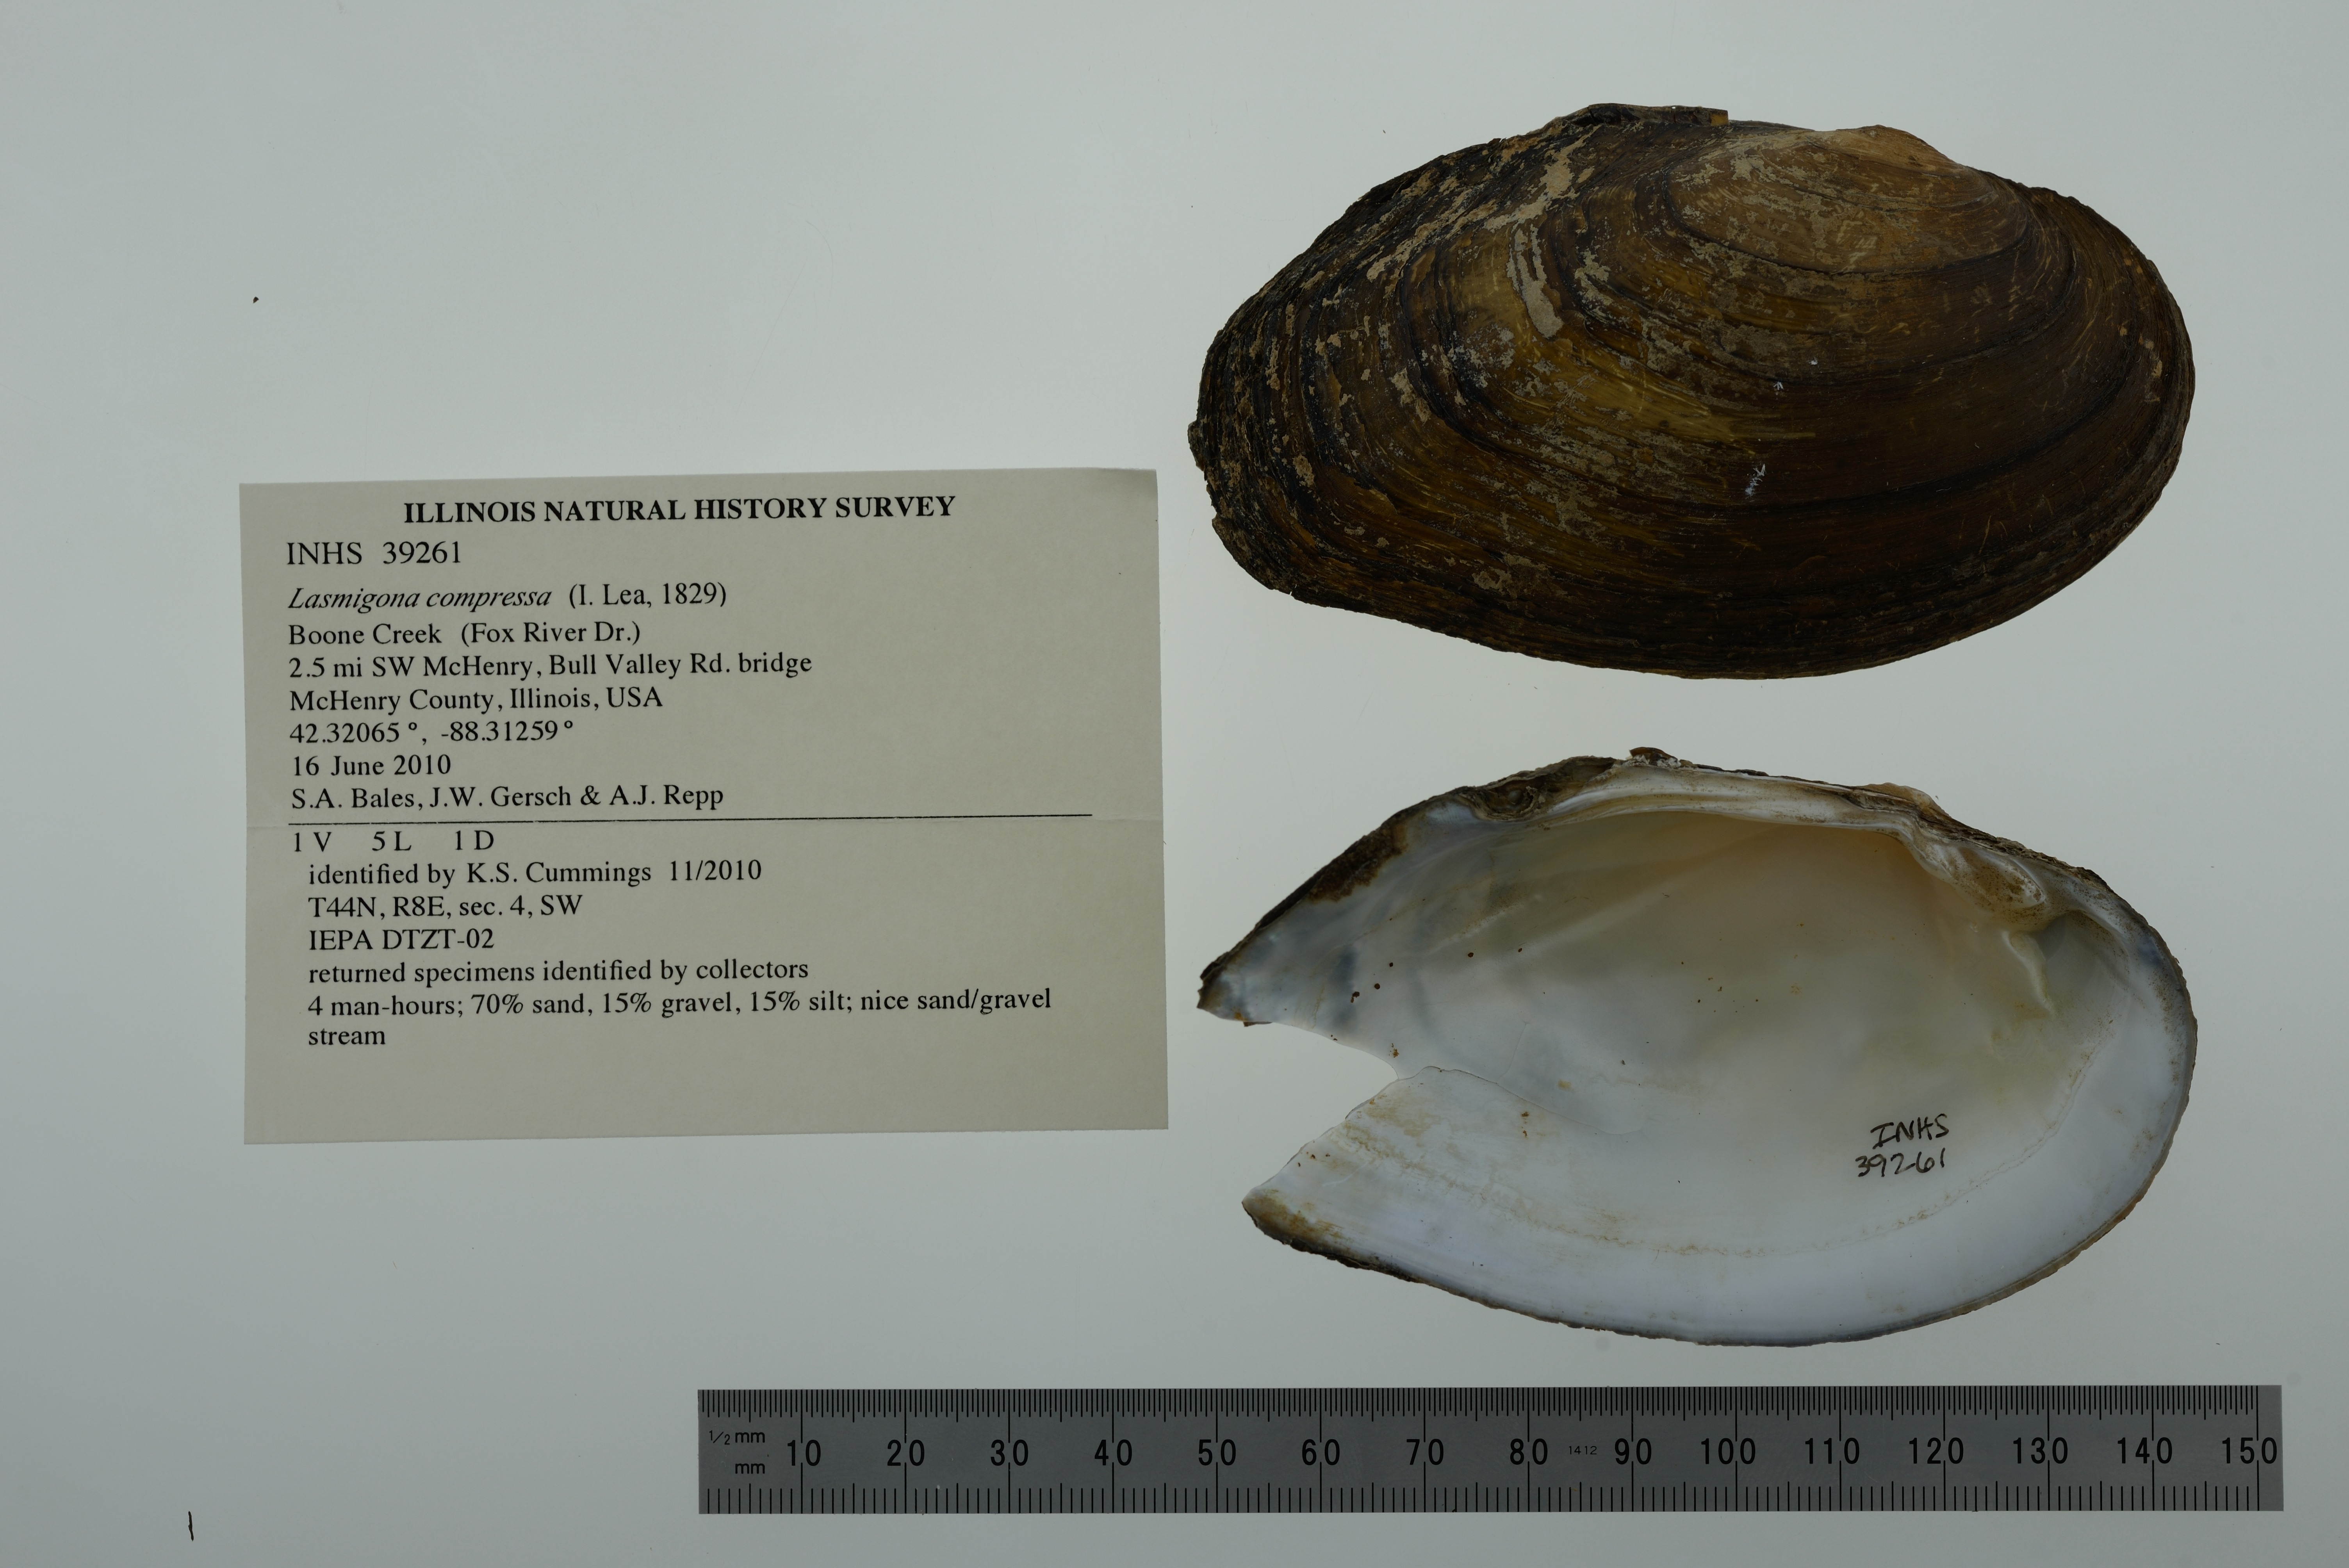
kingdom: Animalia
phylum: Mollusca
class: Bivalvia
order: Unionida
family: Unionidae
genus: Lasmigona
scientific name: Lasmigona compressa
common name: Creek heelsplitter
